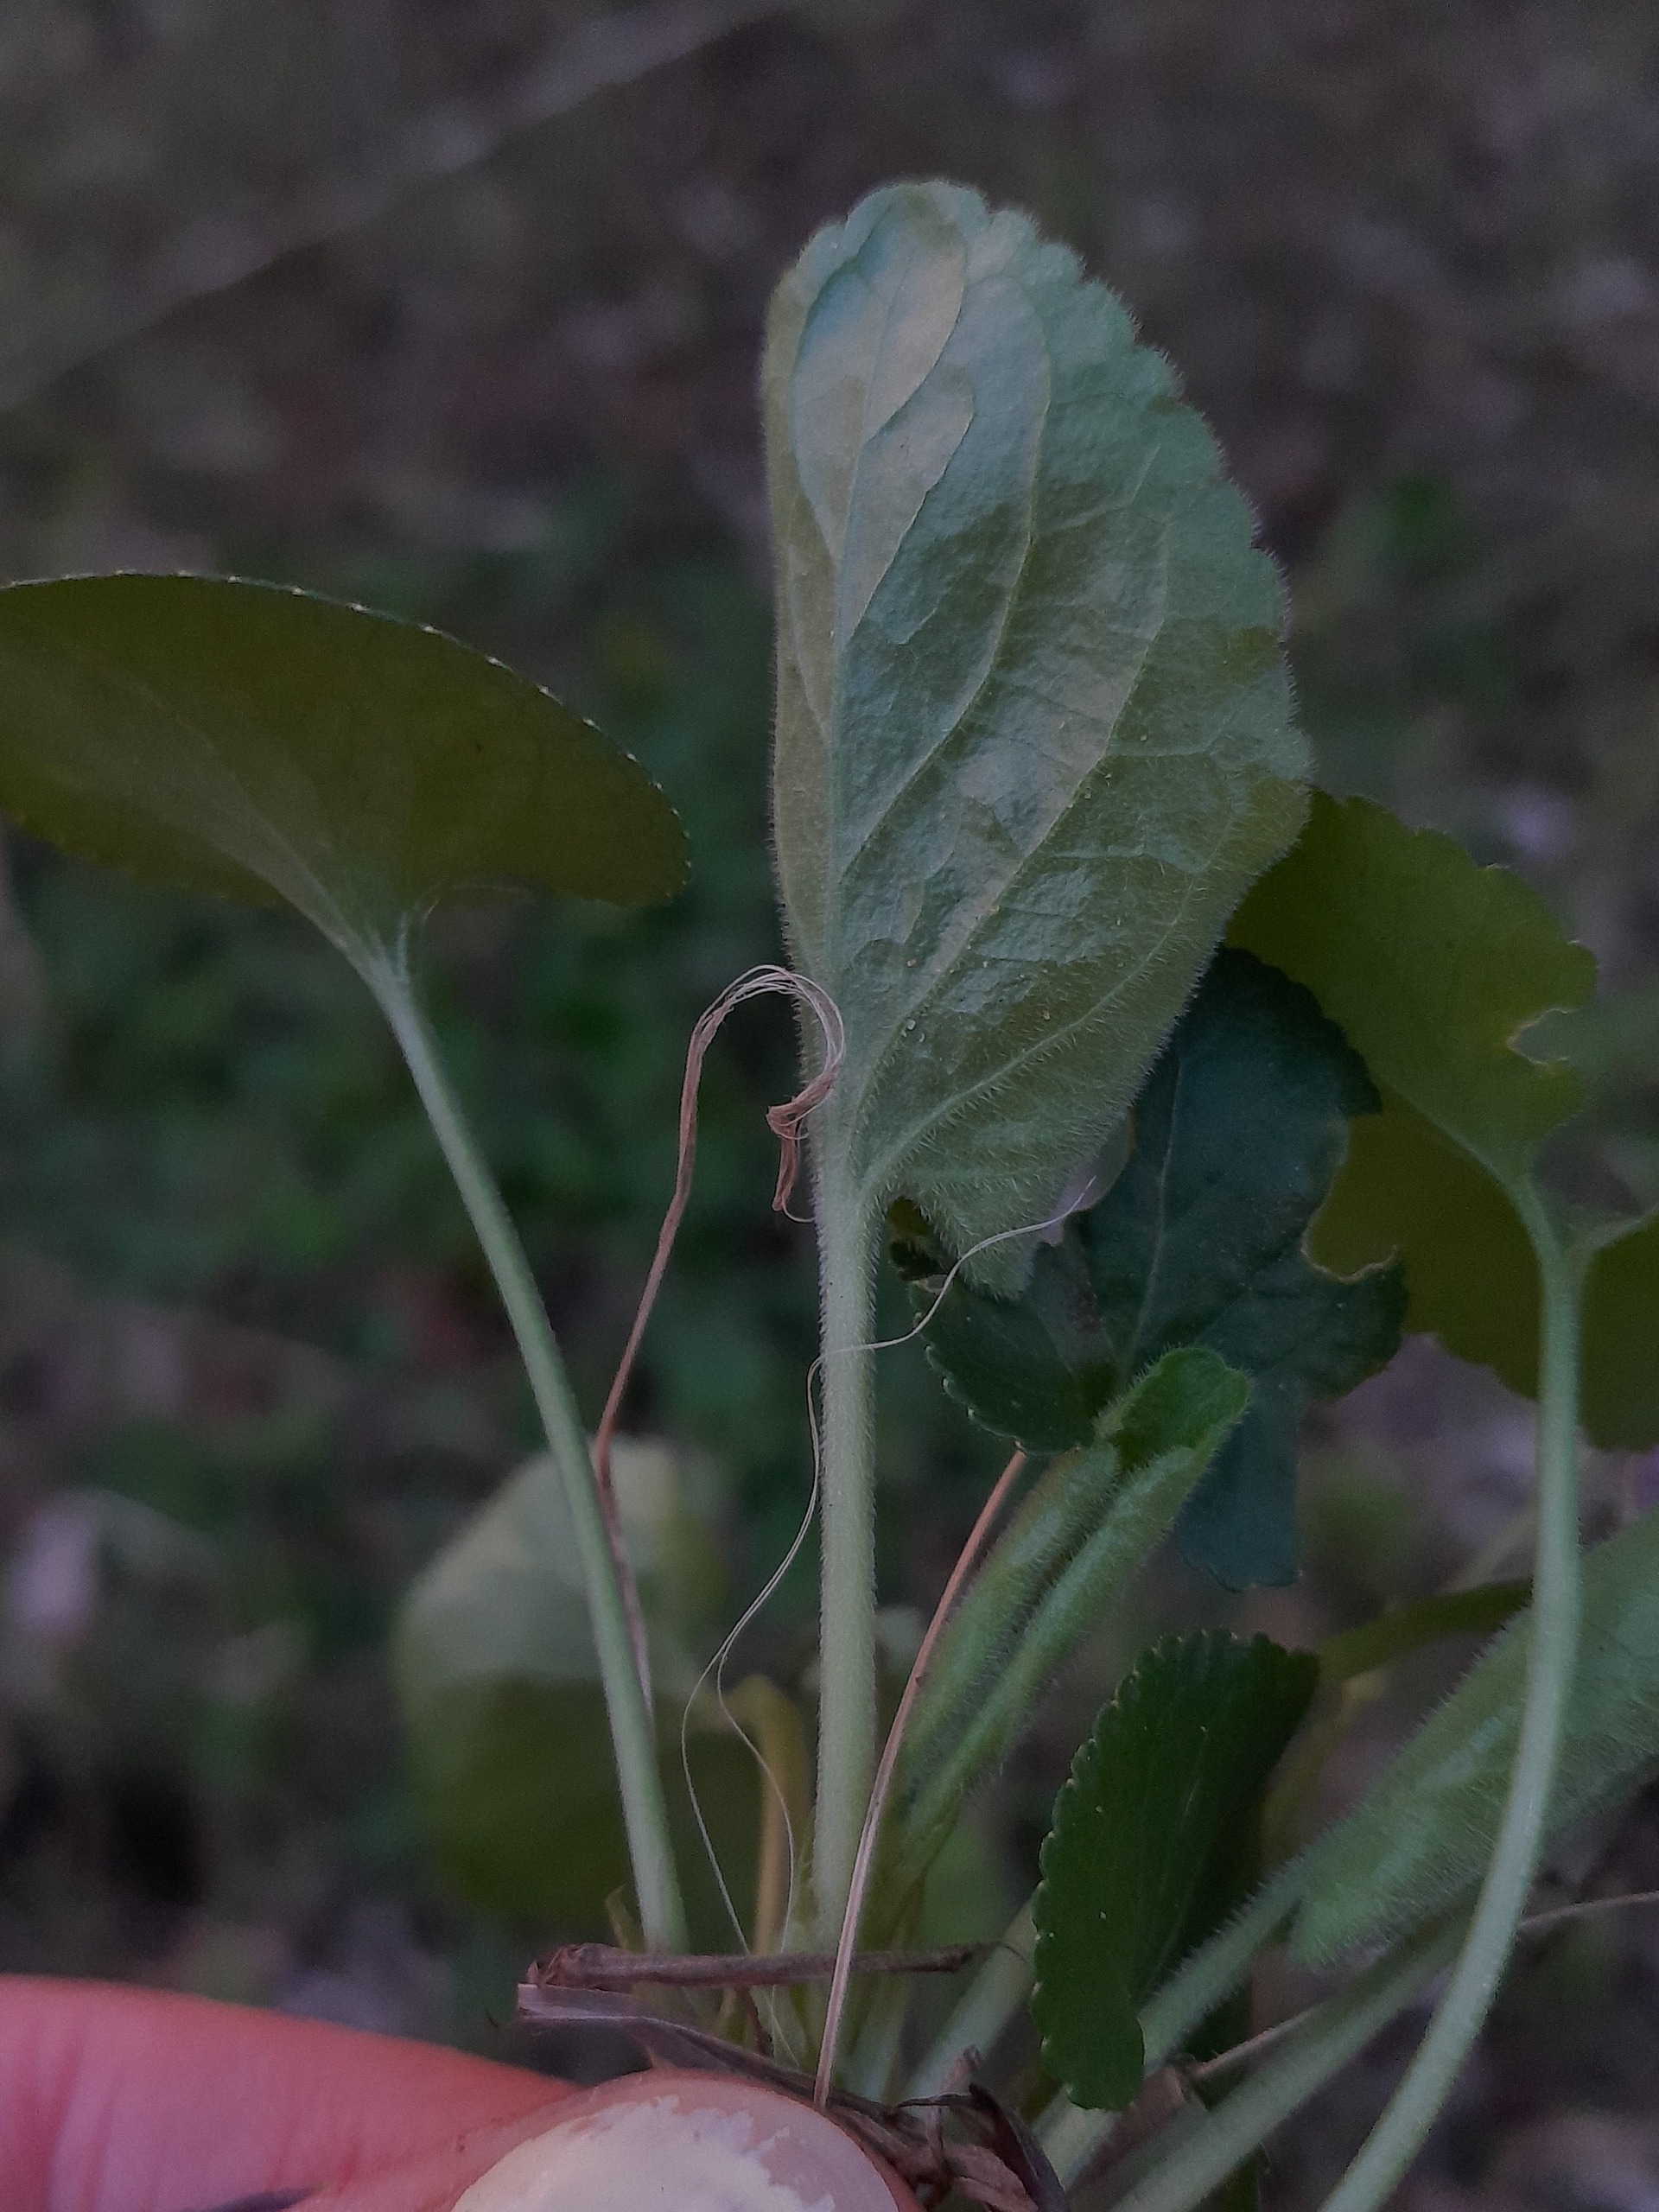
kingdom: Plantae
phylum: Tracheophyta
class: Magnoliopsida
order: Malpighiales
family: Violaceae
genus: Viola
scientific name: Viola odorata
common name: Marts-viol
